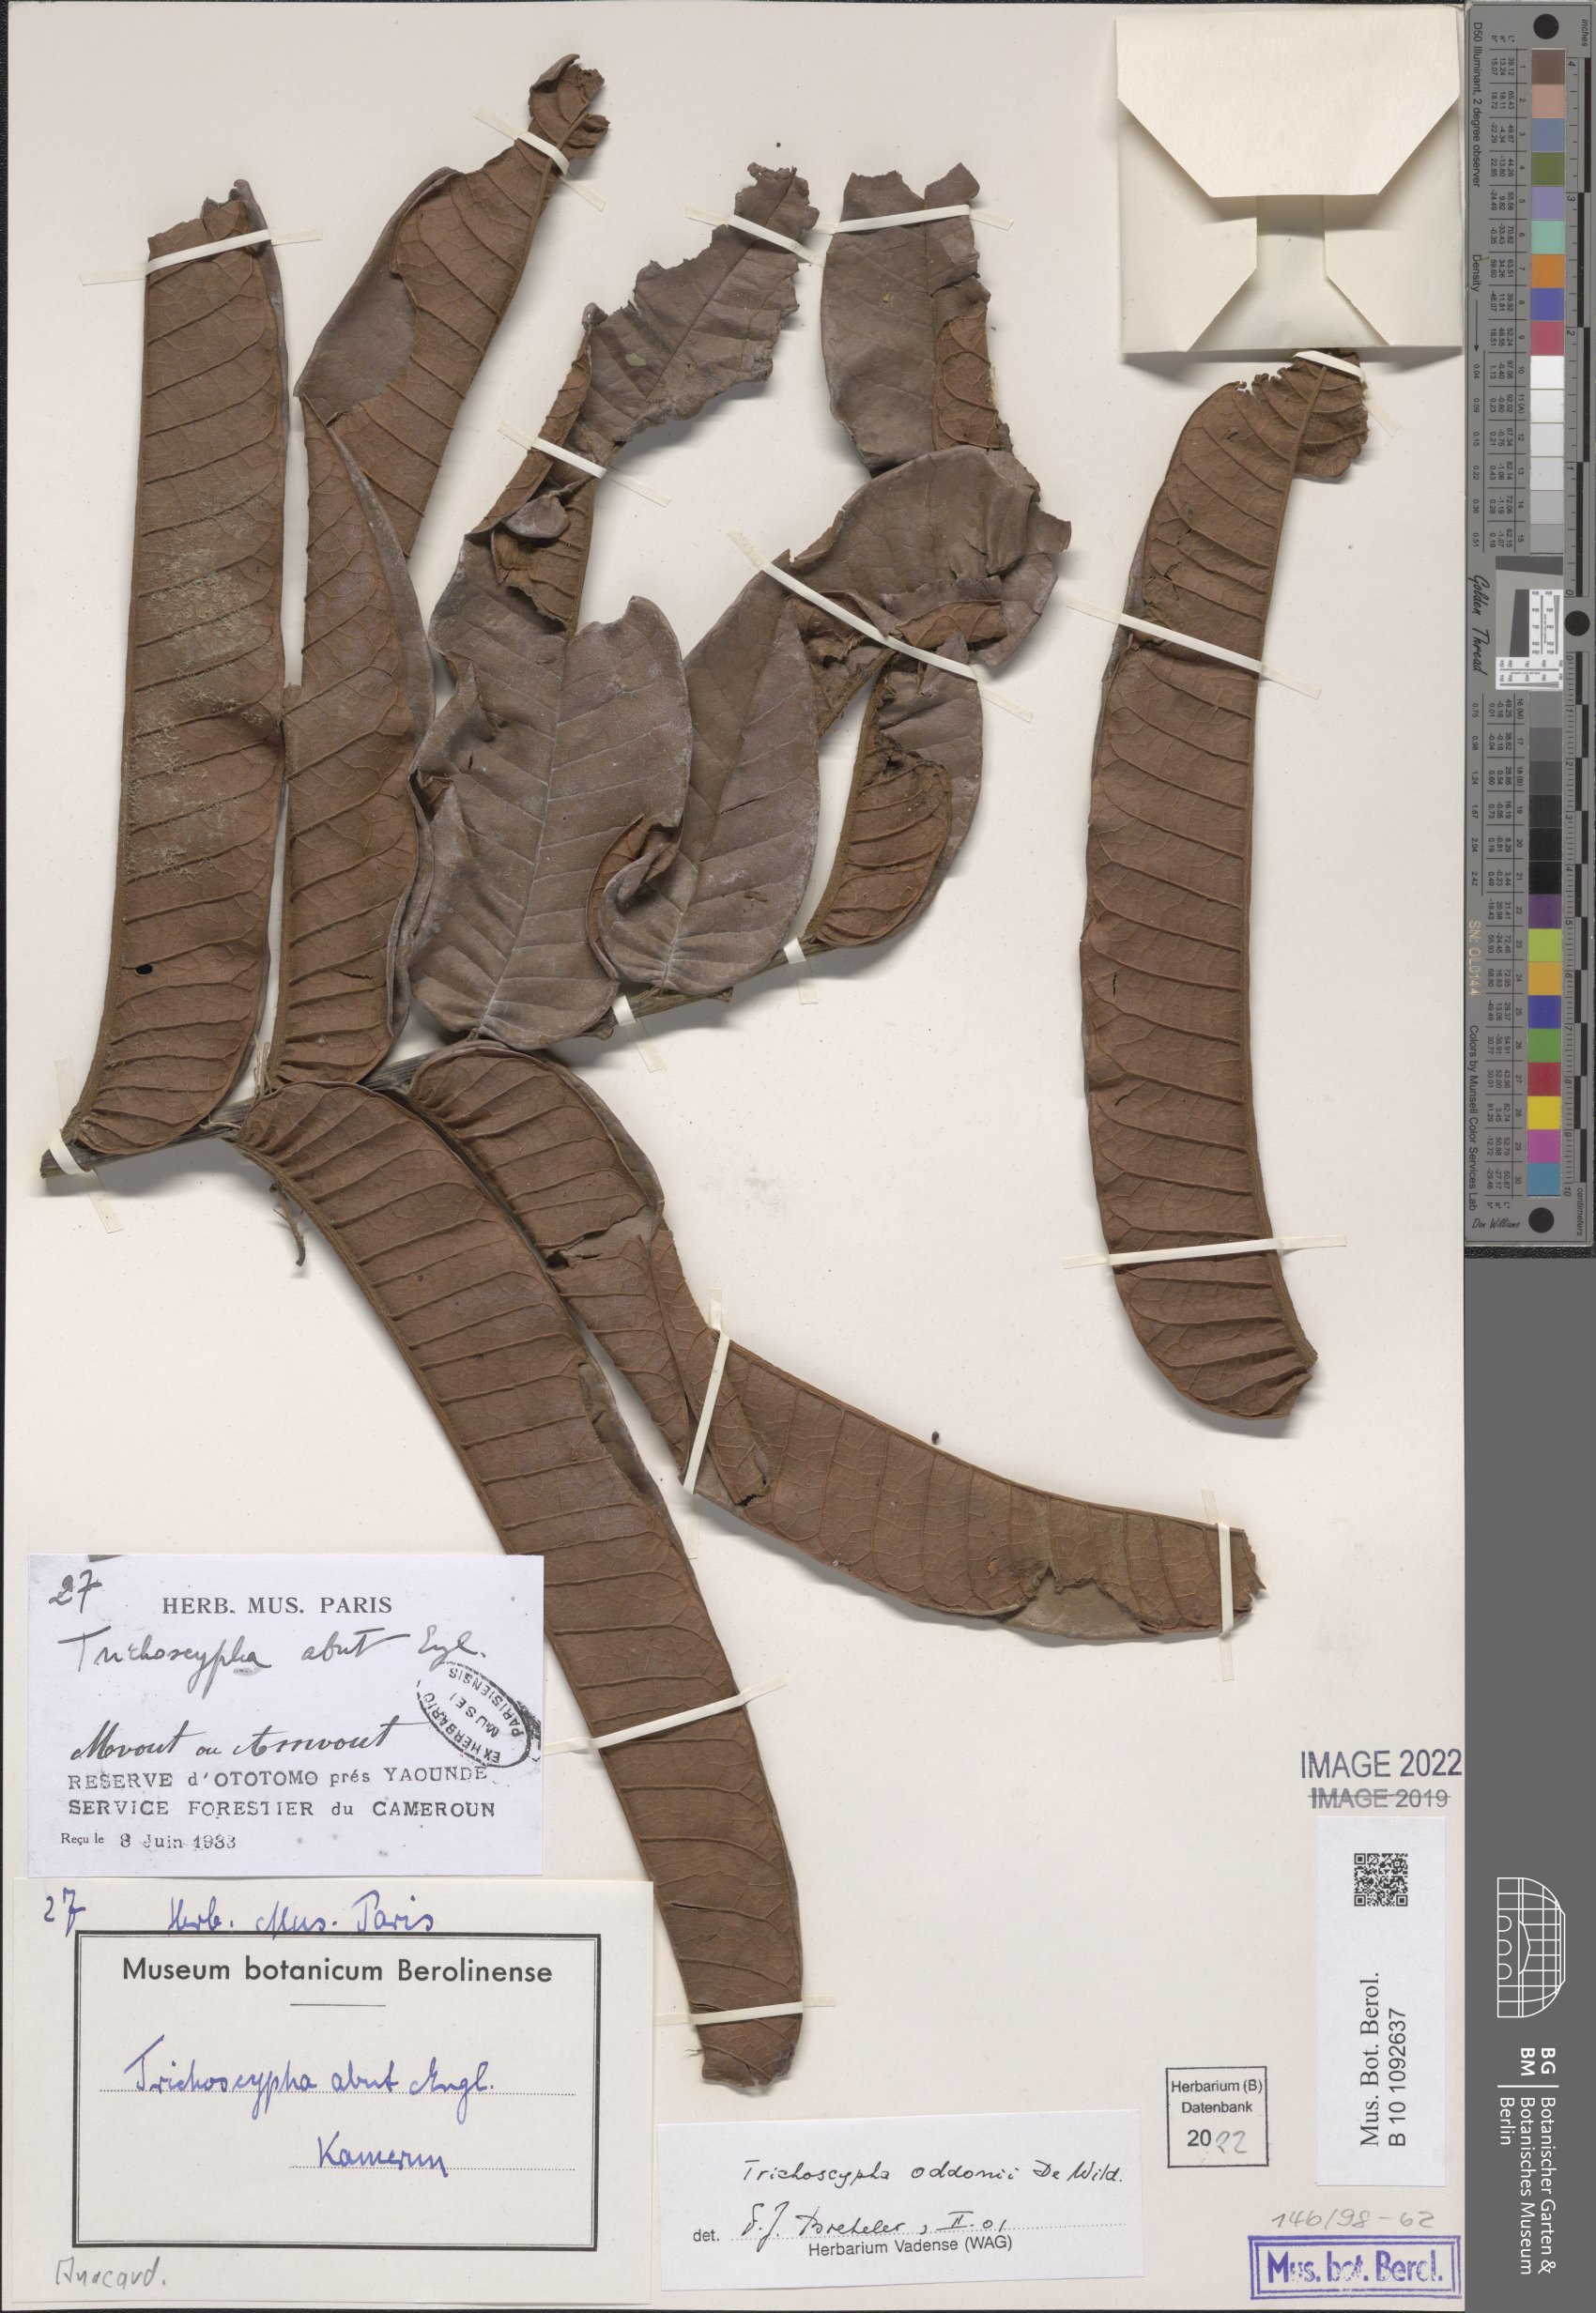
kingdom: Plantae
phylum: Tracheophyta
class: Magnoliopsida
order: Sapindales
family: Anacardiaceae
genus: Trichoscypha
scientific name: Trichoscypha oddonii
